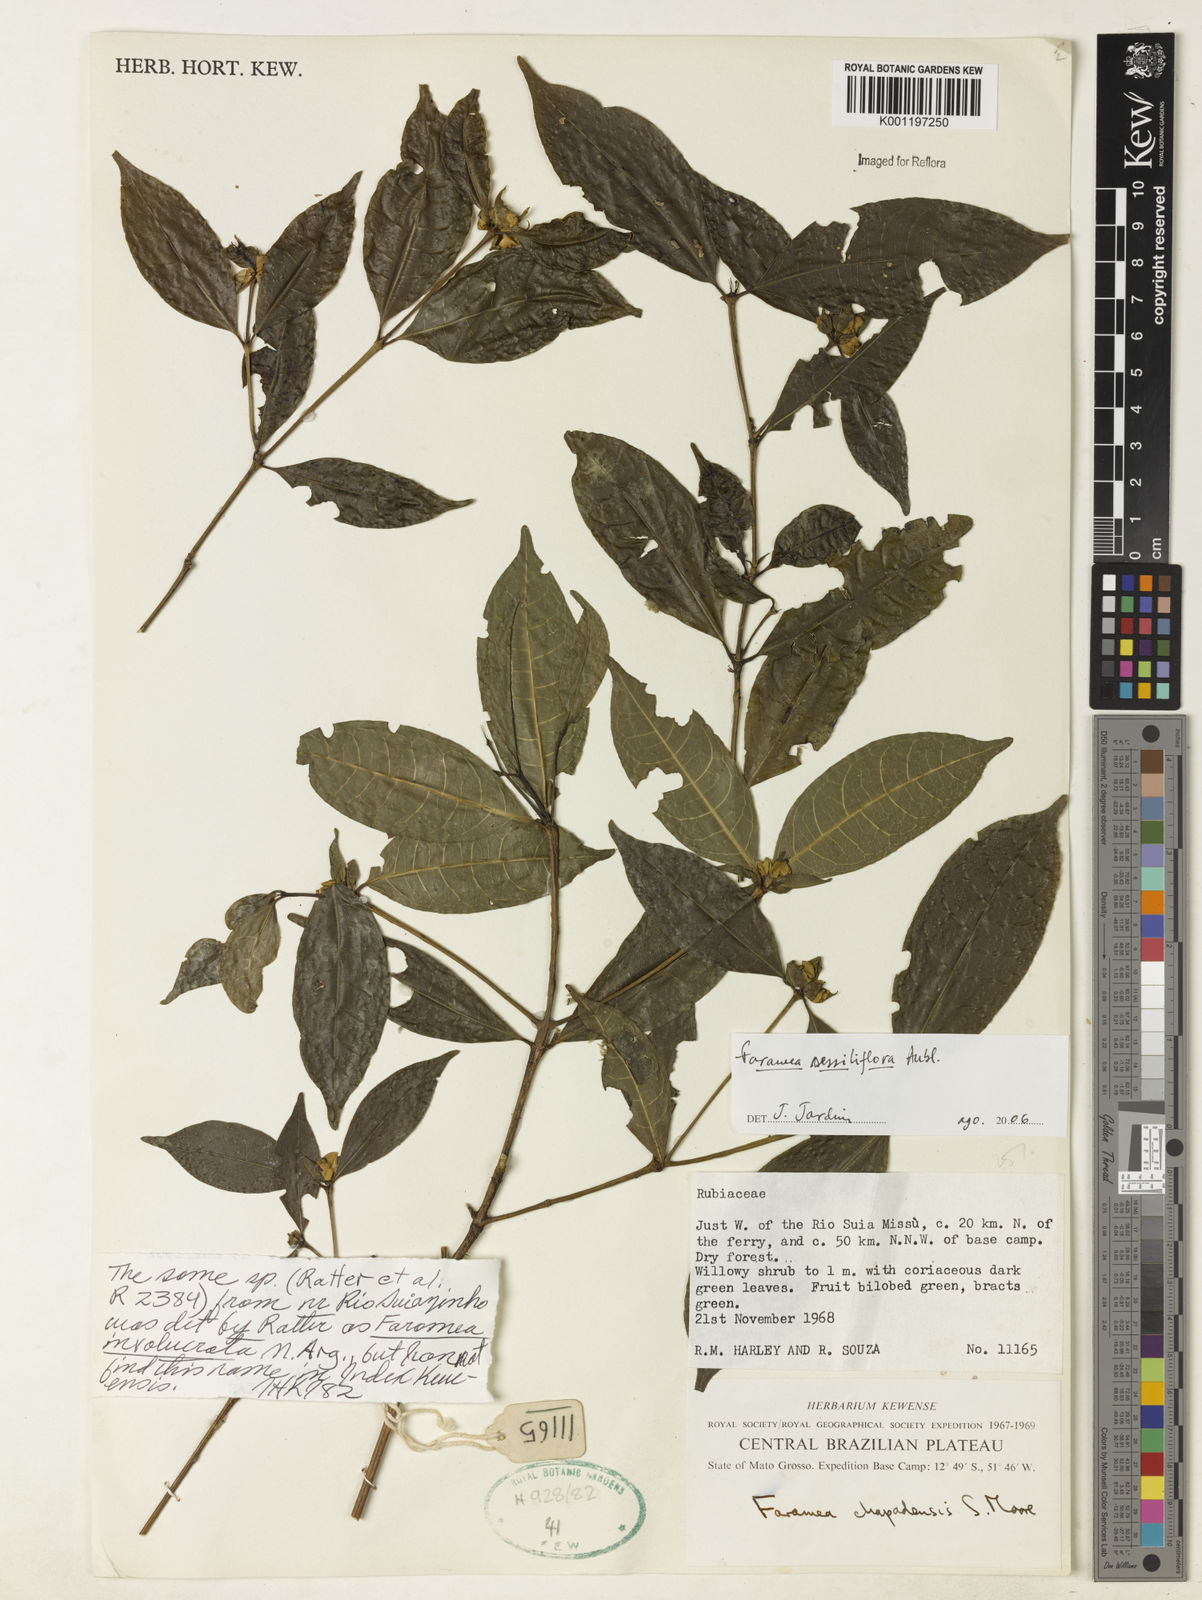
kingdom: Plantae
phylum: Tracheophyta
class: Magnoliopsida
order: Gentianales
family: Rubiaceae
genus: Faramea
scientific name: Faramea sessilifolia
